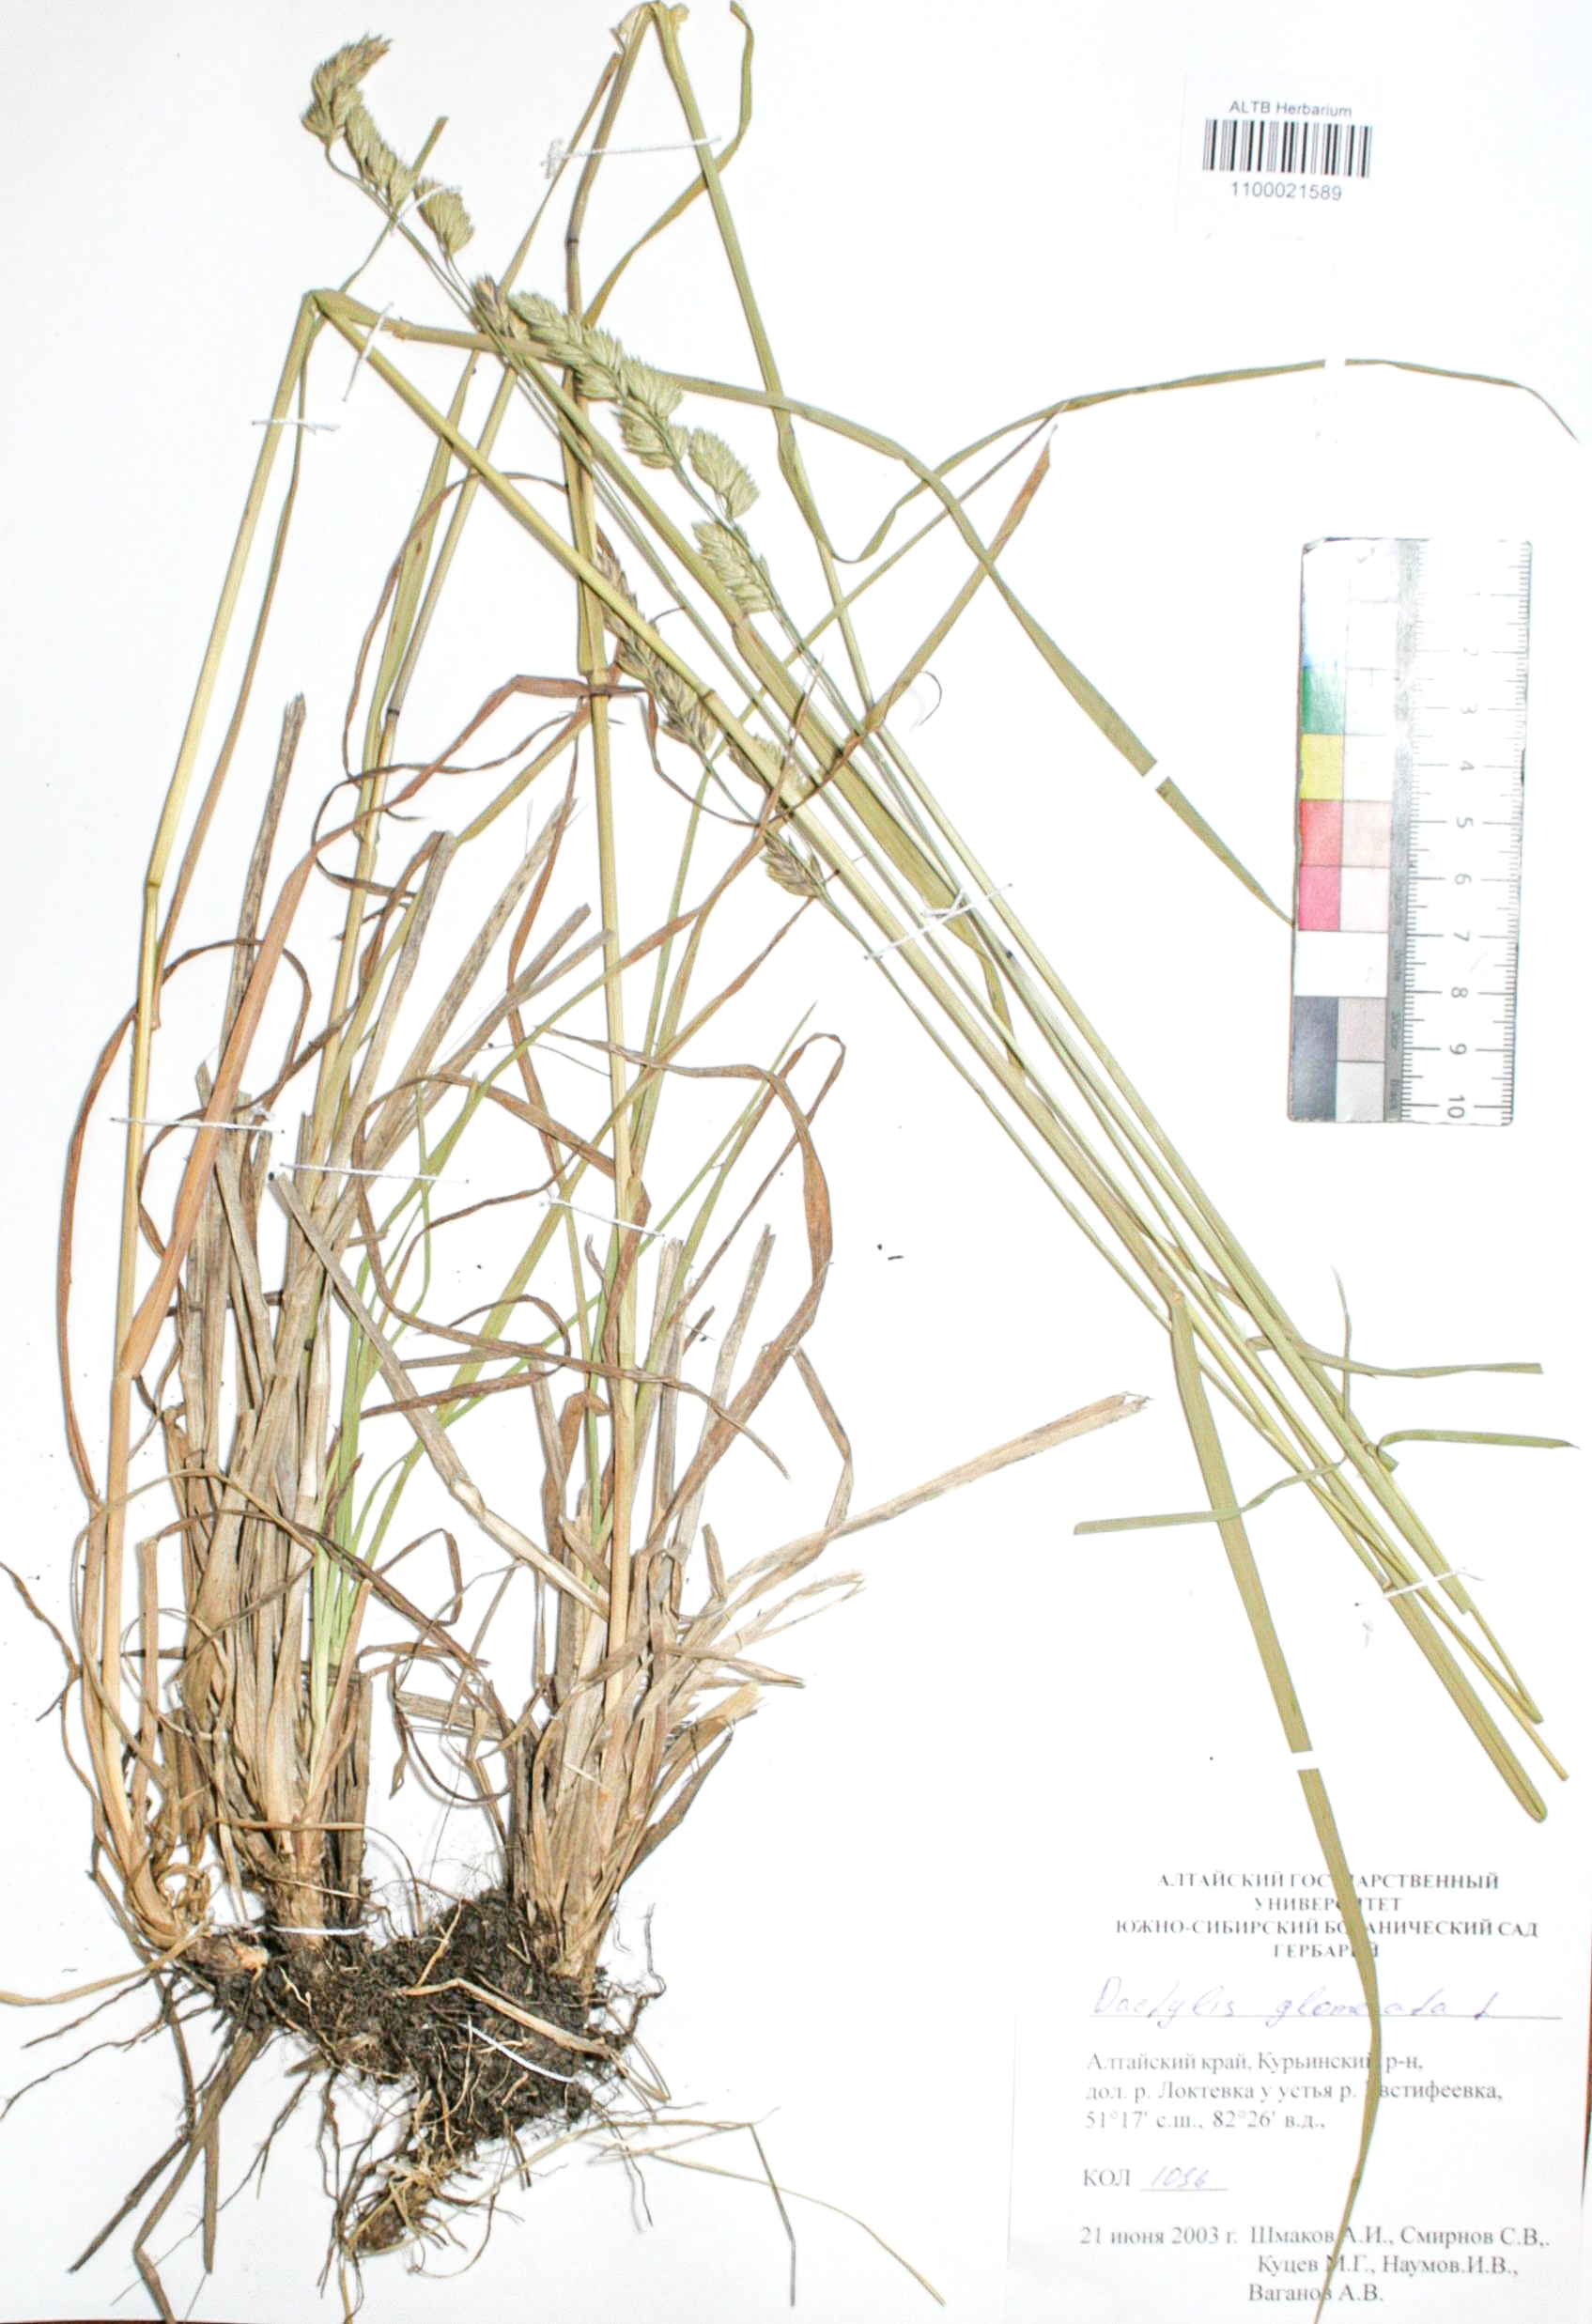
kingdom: Plantae
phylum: Tracheophyta
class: Liliopsida
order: Poales
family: Poaceae
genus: Dactylis
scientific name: Dactylis glomerata
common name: Orchardgrass
